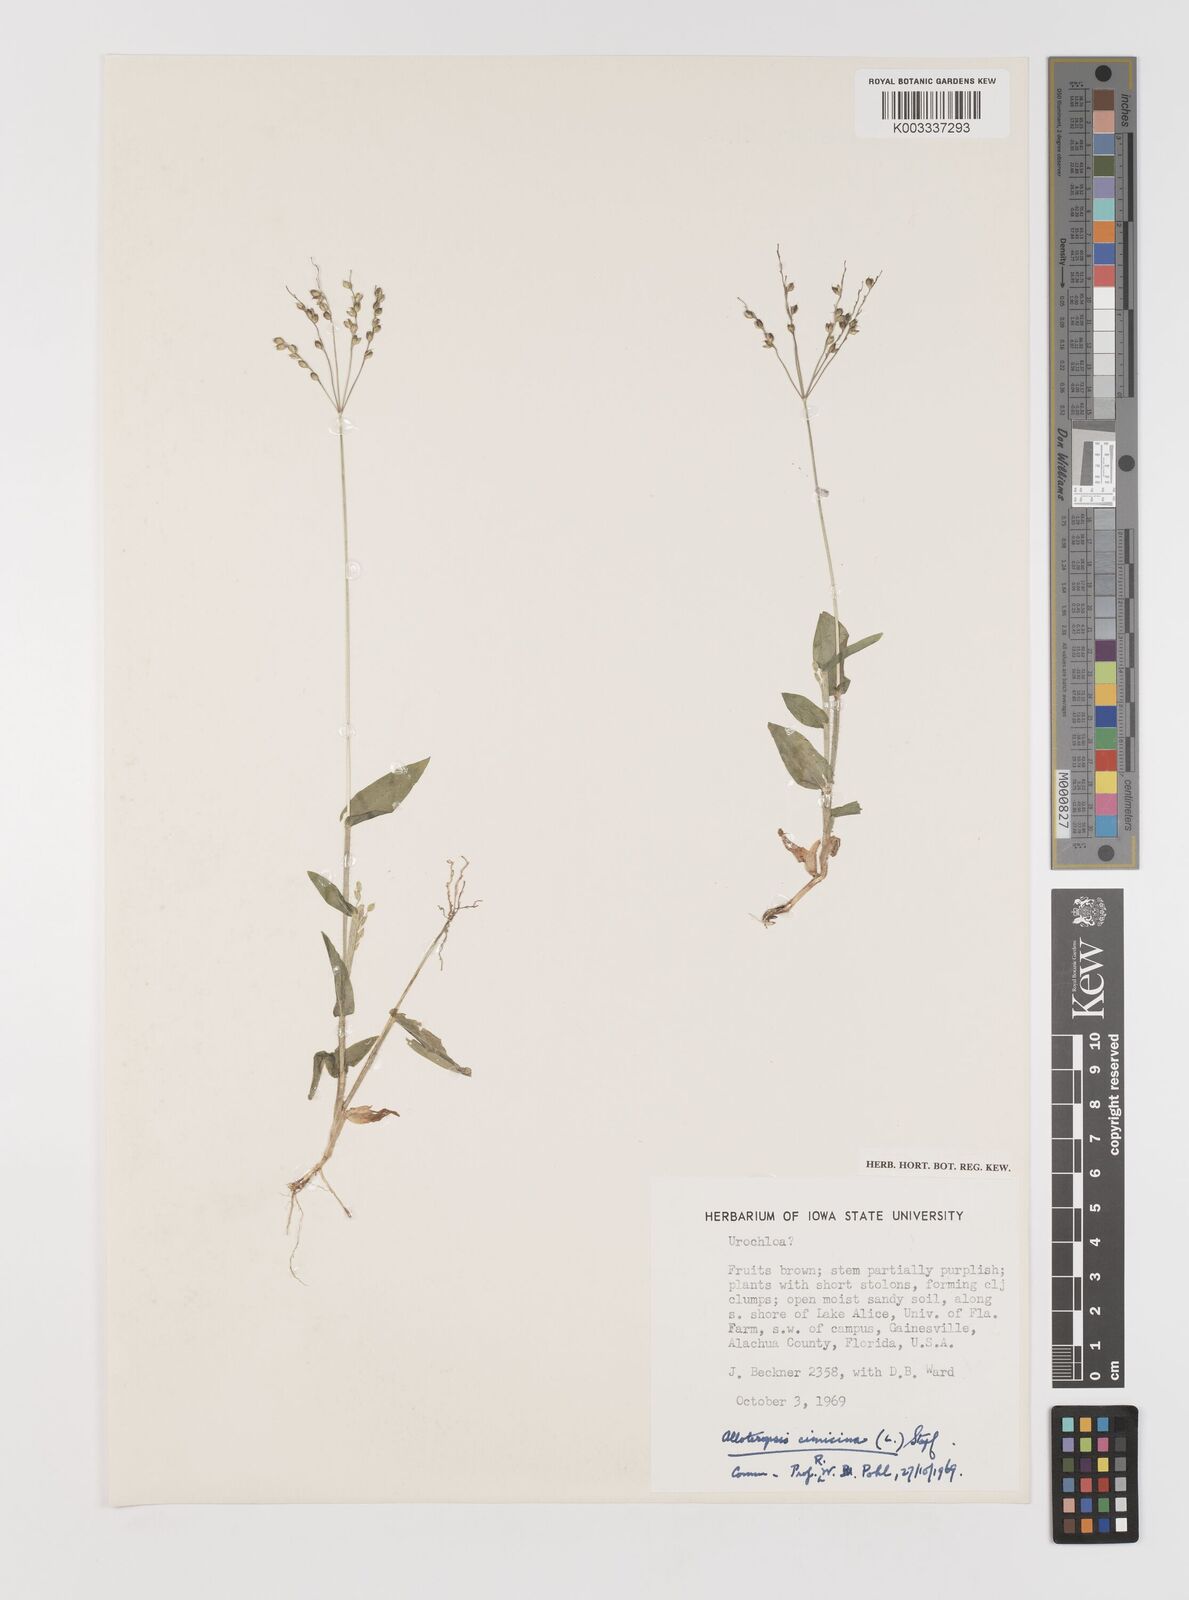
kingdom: Plantae
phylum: Tracheophyta
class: Liliopsida
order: Poales
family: Poaceae
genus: Alloteropsis
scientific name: Alloteropsis cimicina
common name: Summergrass
